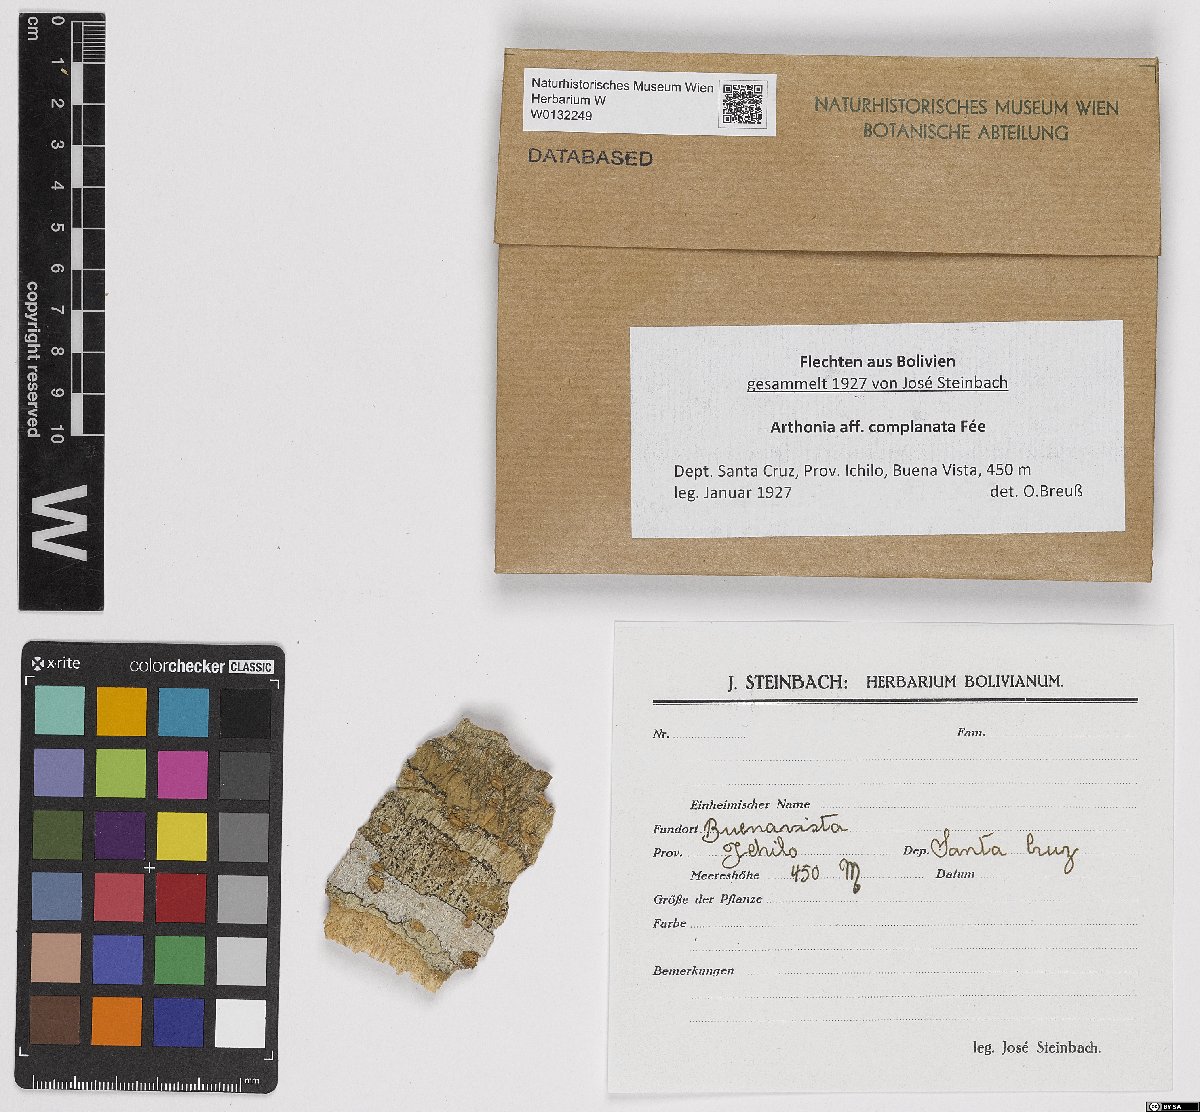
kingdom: Fungi
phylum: Ascomycota
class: Arthoniomycetes
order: Arthoniales
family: Arthoniaceae
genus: Arthonia
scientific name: Arthonia complanata
